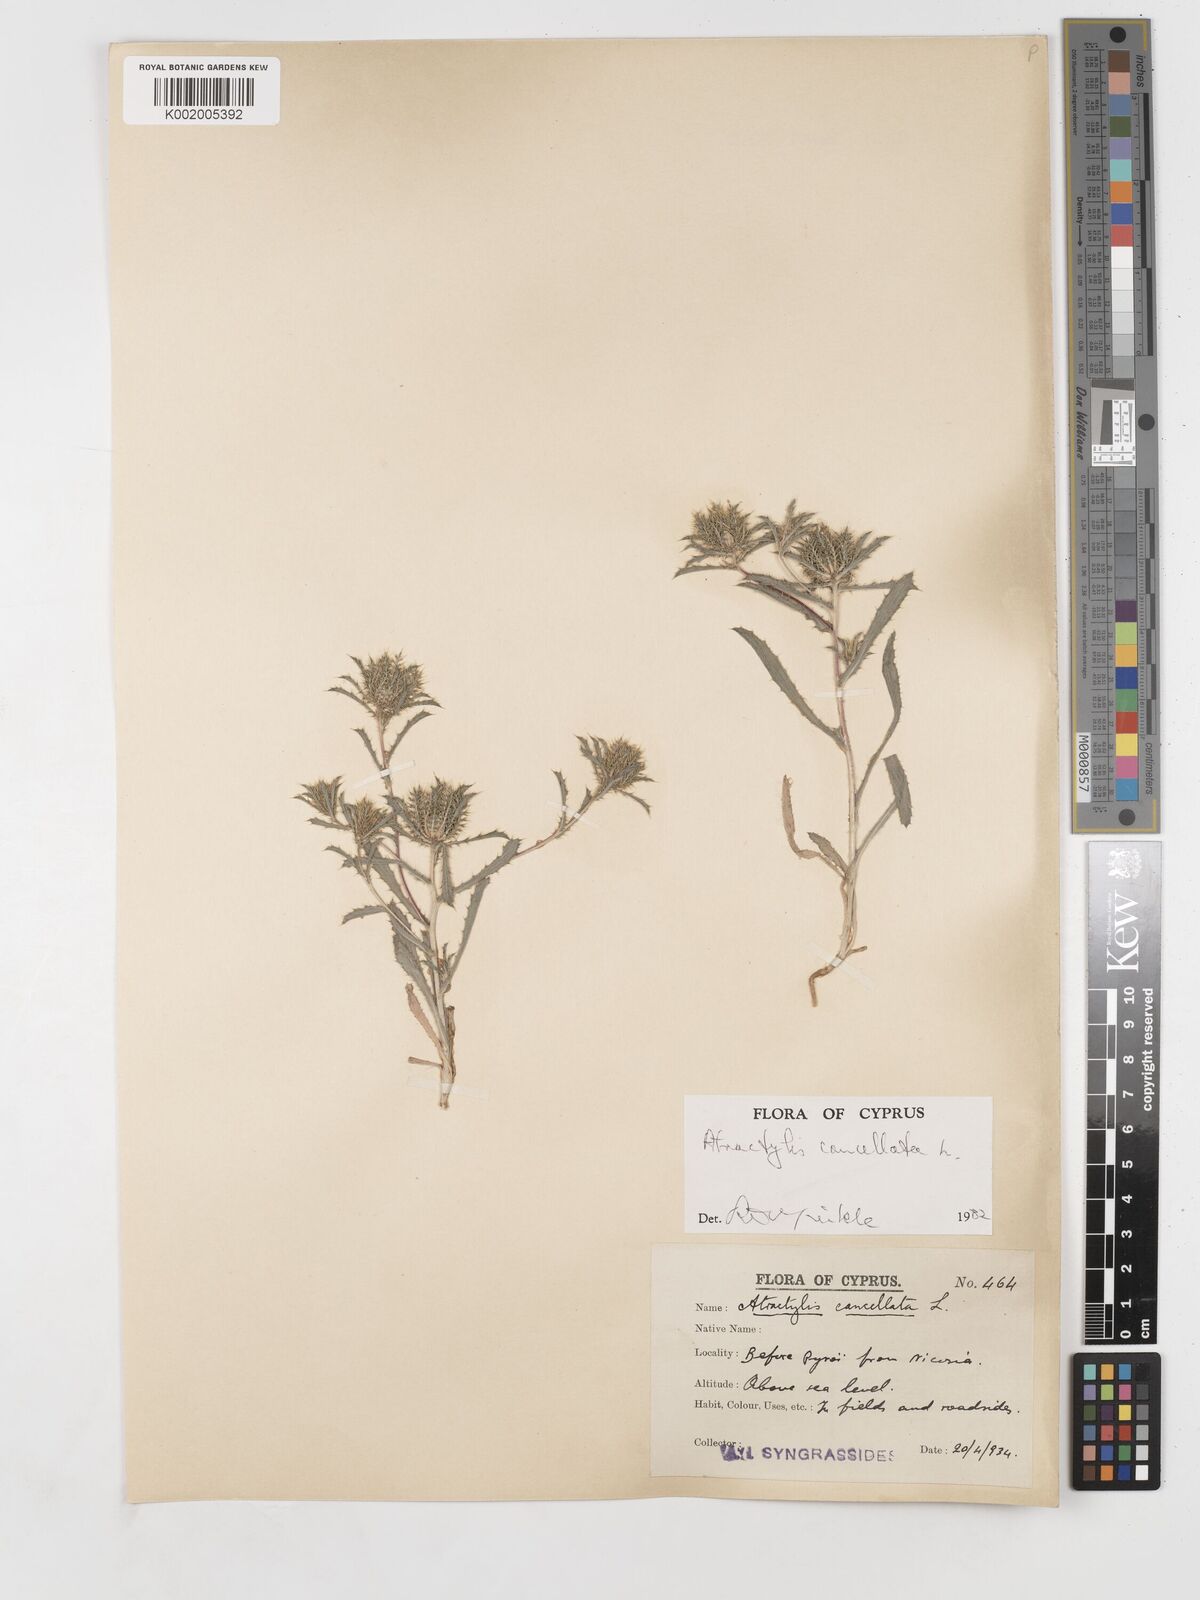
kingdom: Plantae
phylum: Tracheophyta
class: Magnoliopsida
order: Asterales
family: Asteraceae
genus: Atractylis
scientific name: Atractylis cancellata
